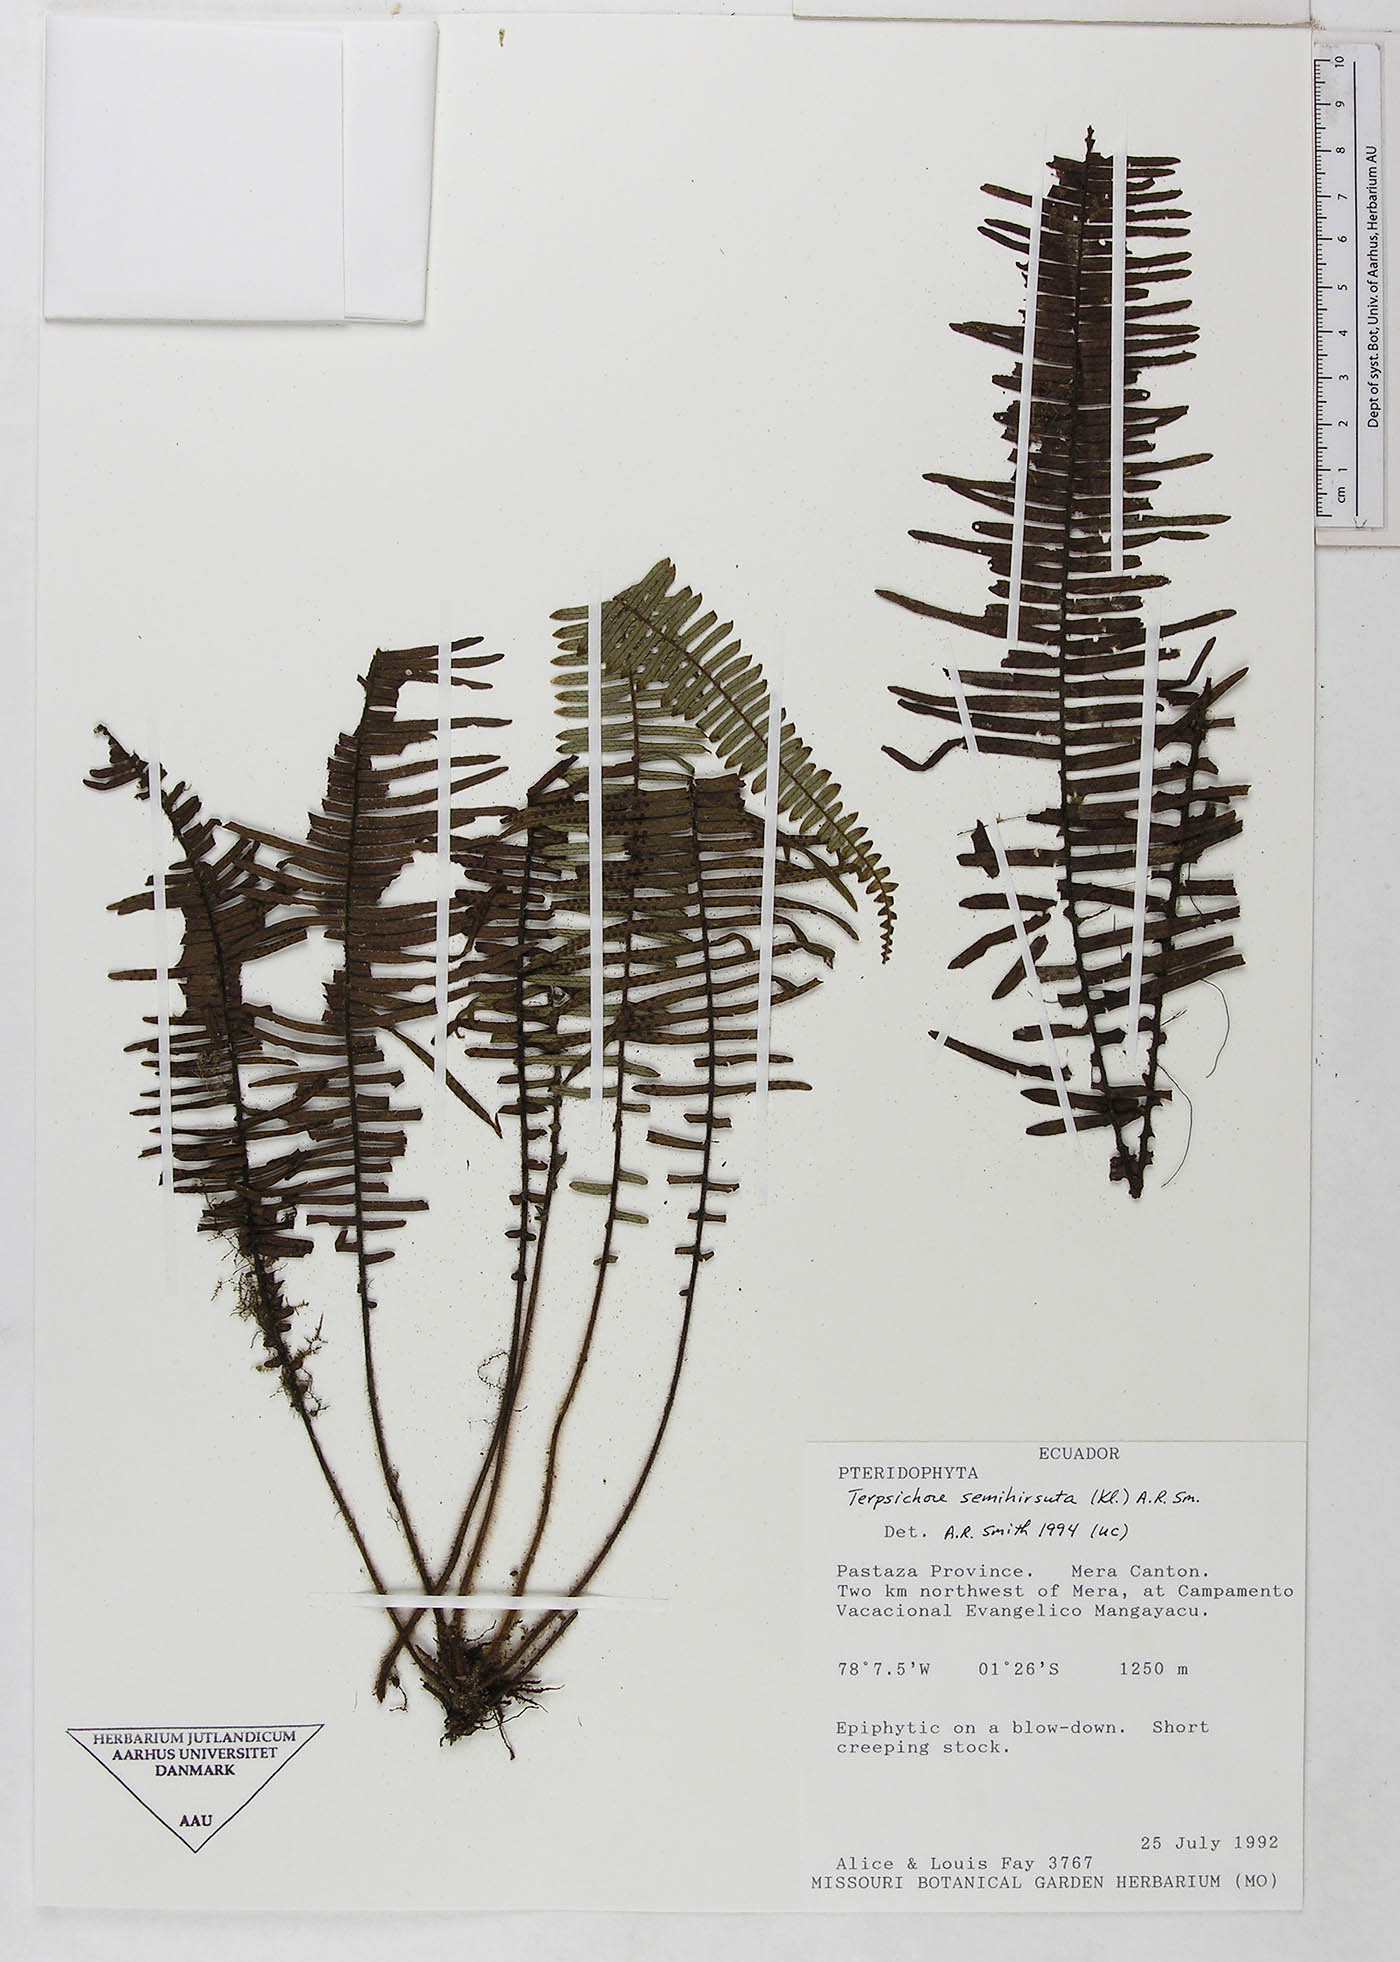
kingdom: Plantae
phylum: Tracheophyta
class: Polypodiopsida
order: Polypodiales
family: Polypodiaceae
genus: Mycopteris
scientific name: Mycopteris semihirsuta
